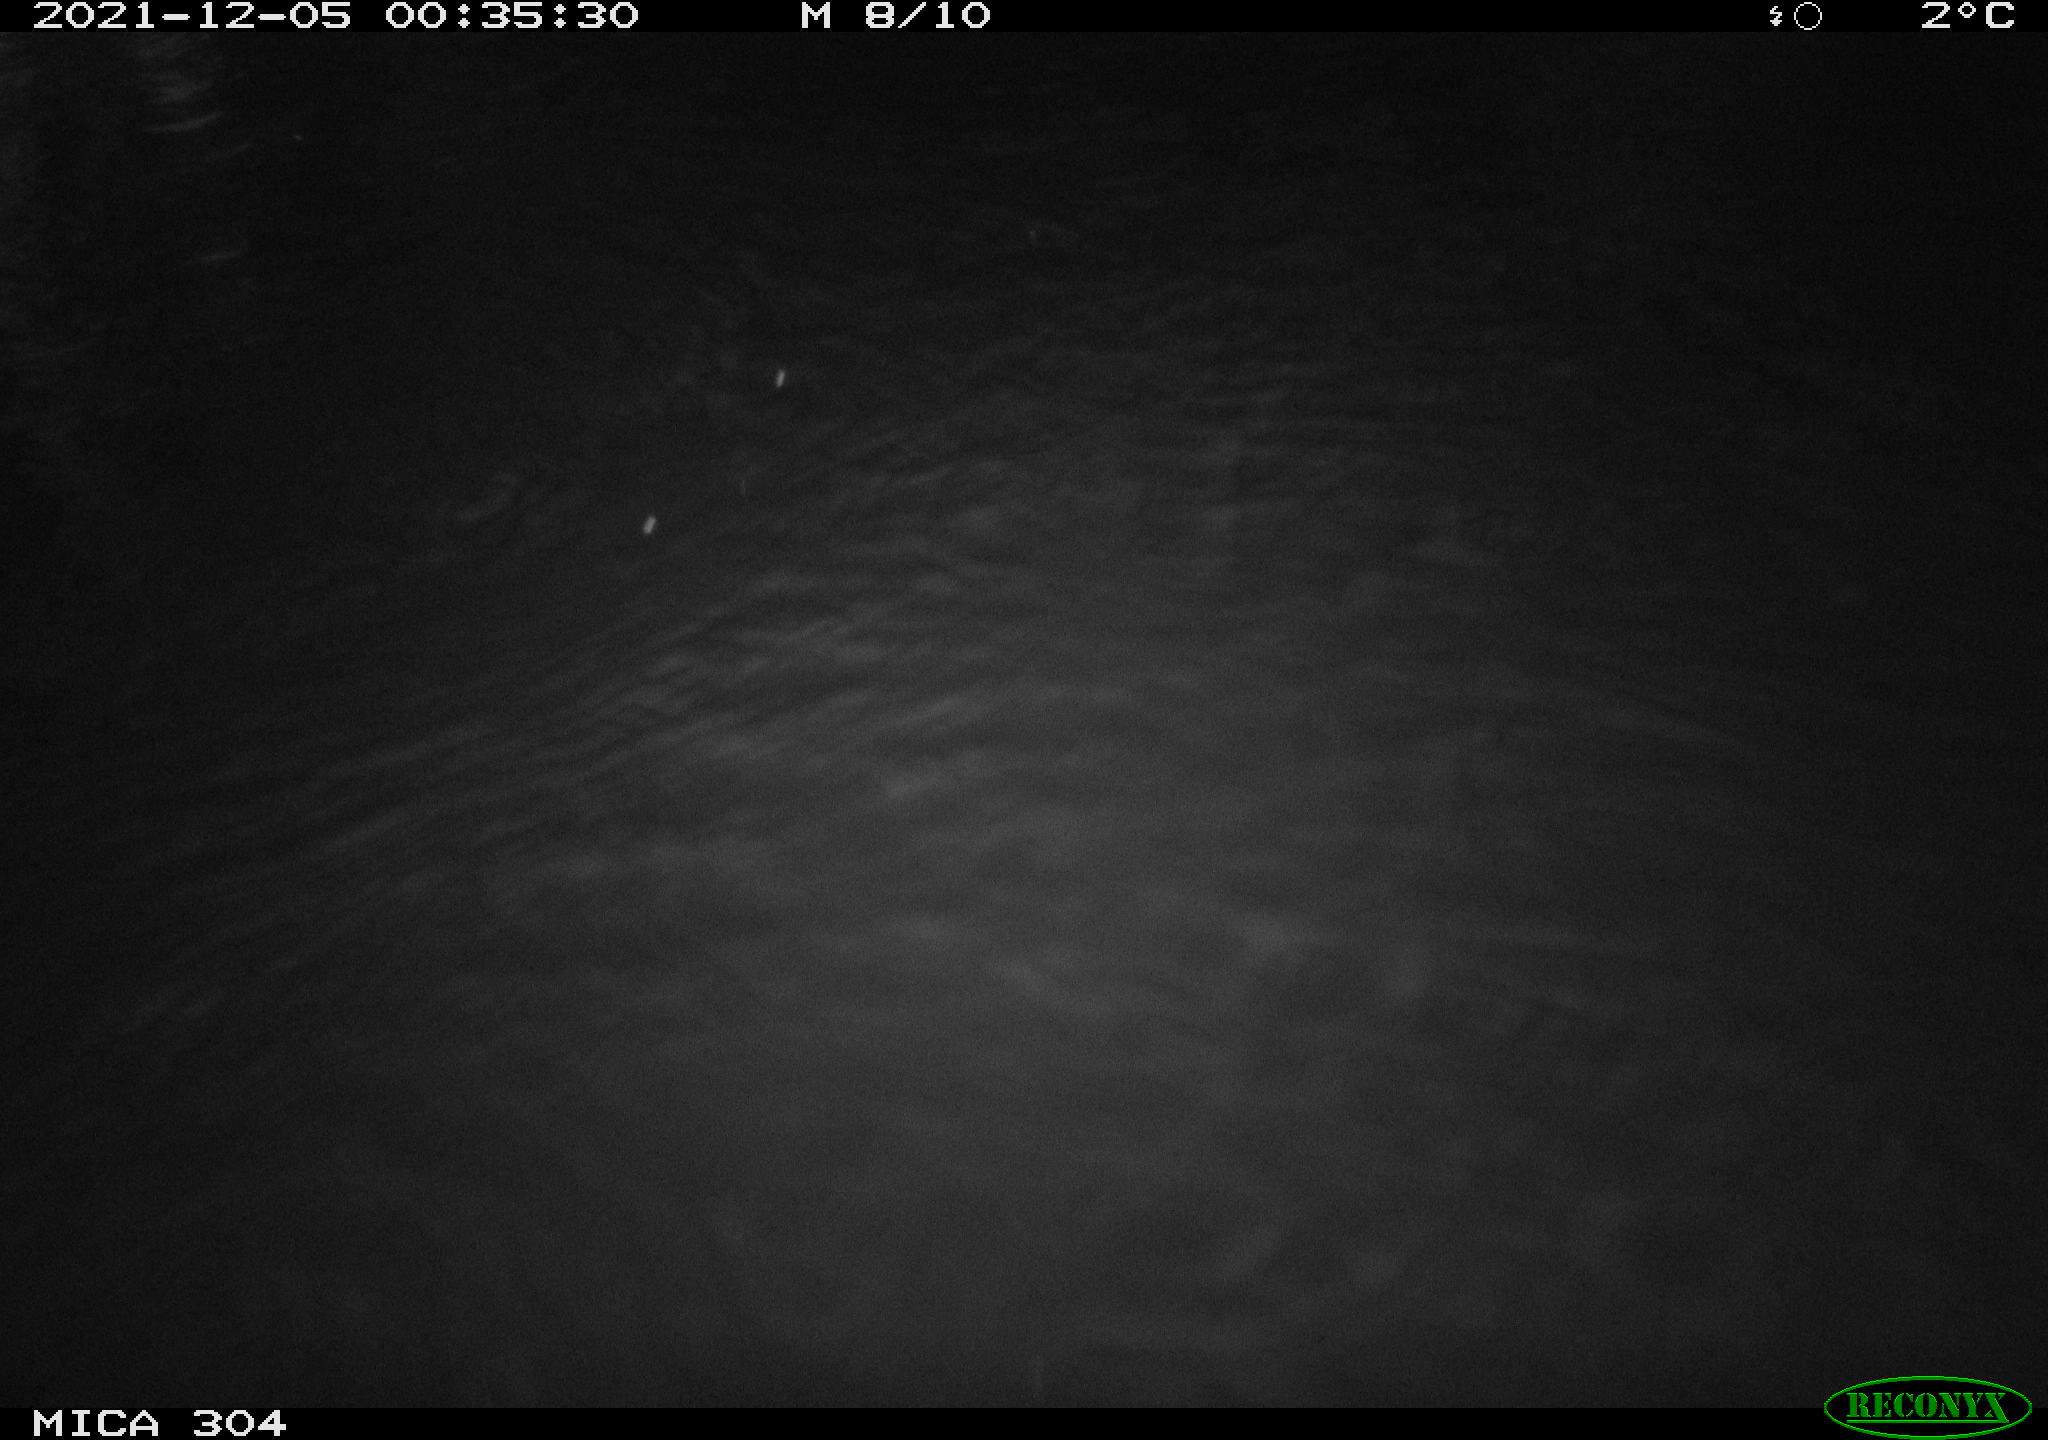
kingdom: Animalia
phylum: Chordata
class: Mammalia
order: Rodentia
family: Muridae
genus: Rattus
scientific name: Rattus norvegicus
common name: Brown rat
